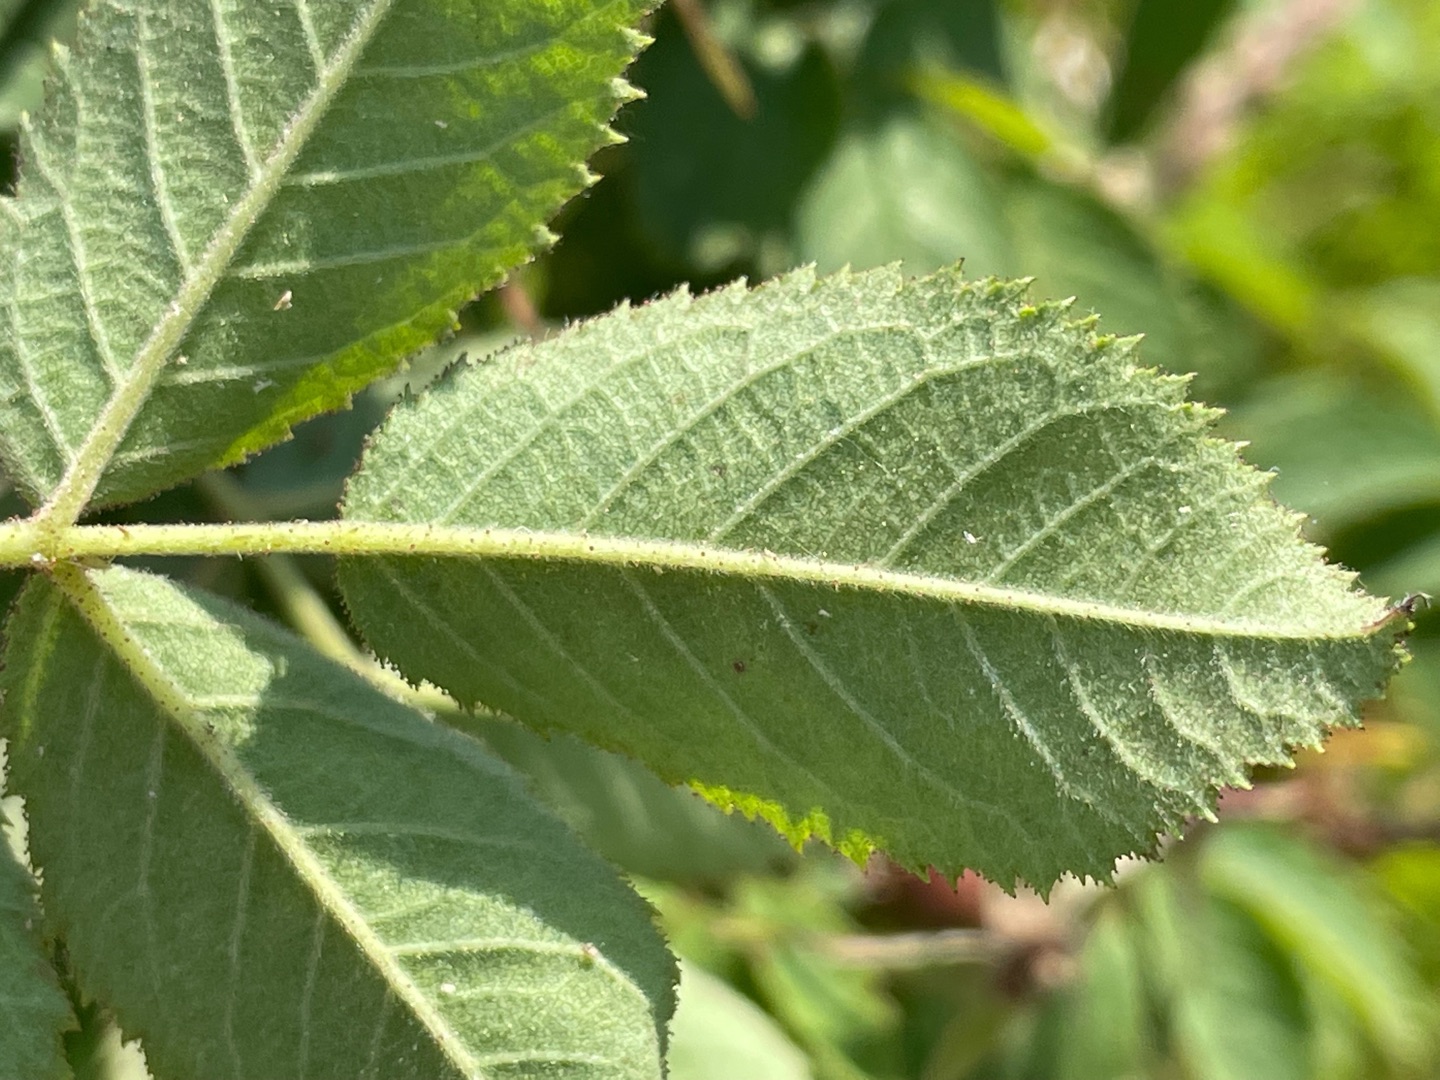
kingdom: Plantae
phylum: Tracheophyta
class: Magnoliopsida
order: Rosales
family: Rosaceae
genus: Rosa
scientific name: Rosa rubiginosa
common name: Æble-rose
